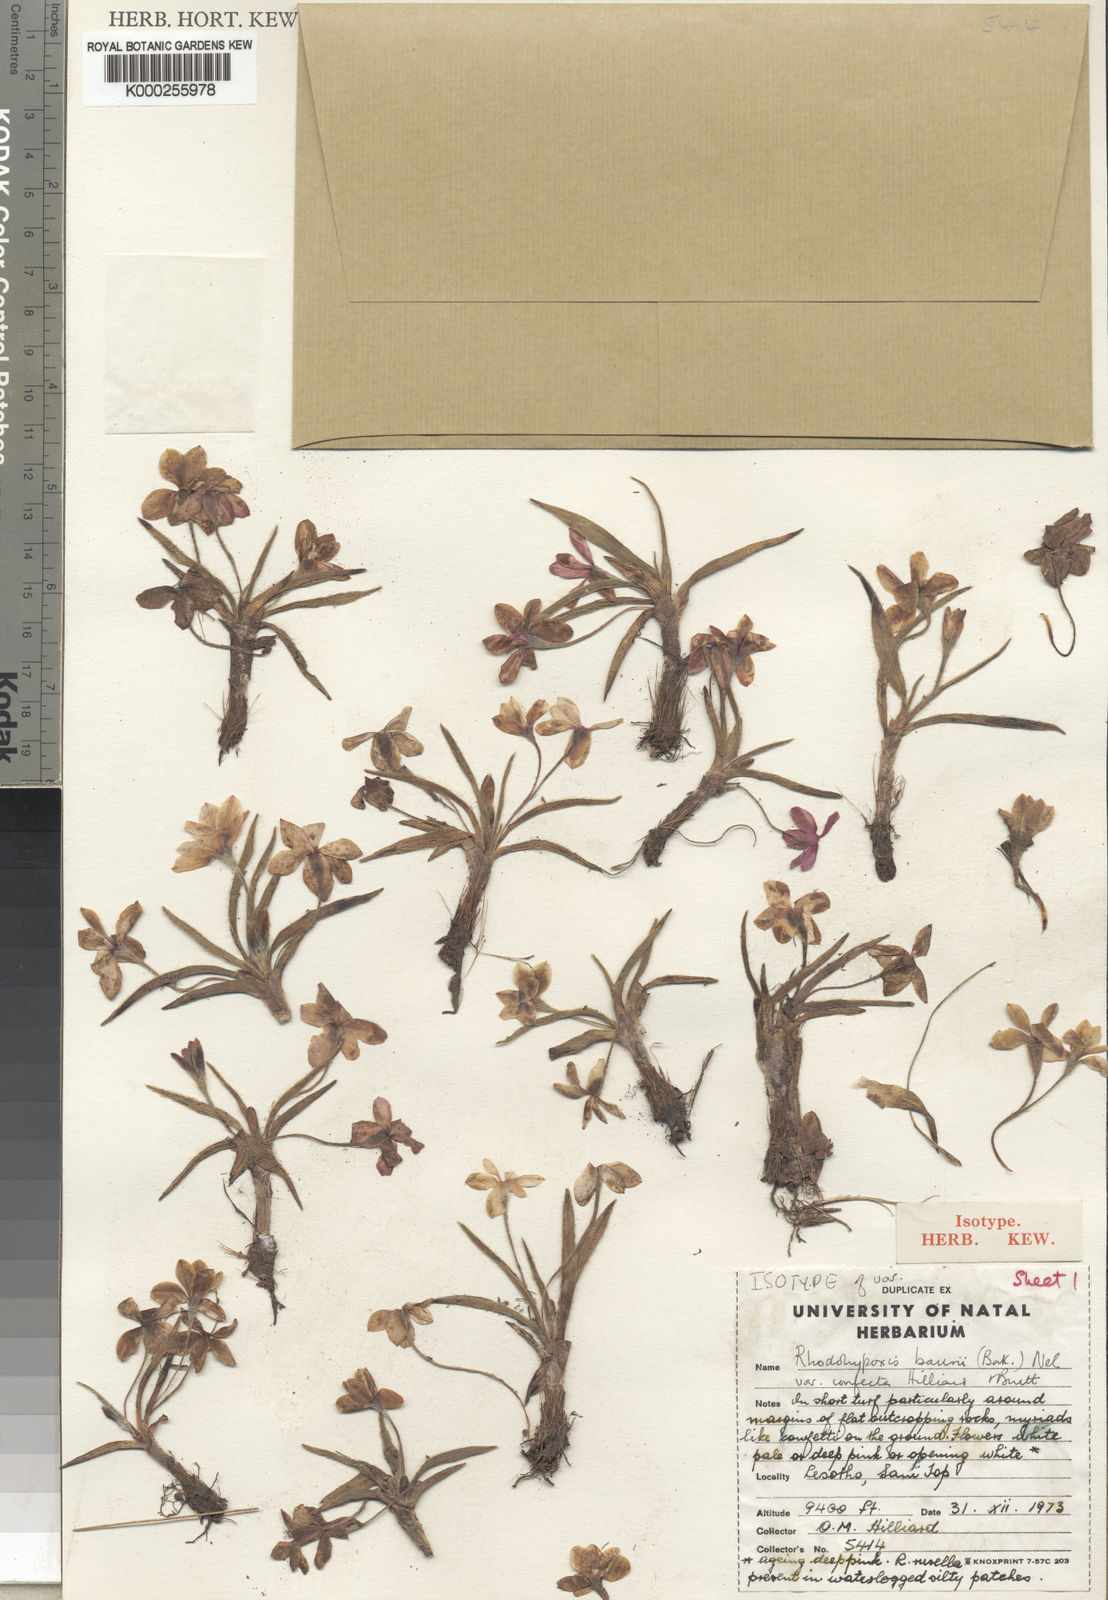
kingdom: Plantae
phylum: Tracheophyta
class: Liliopsida
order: Asparagales
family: Hypoxidaceae
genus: Hypoxis
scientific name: Hypoxis baurii
